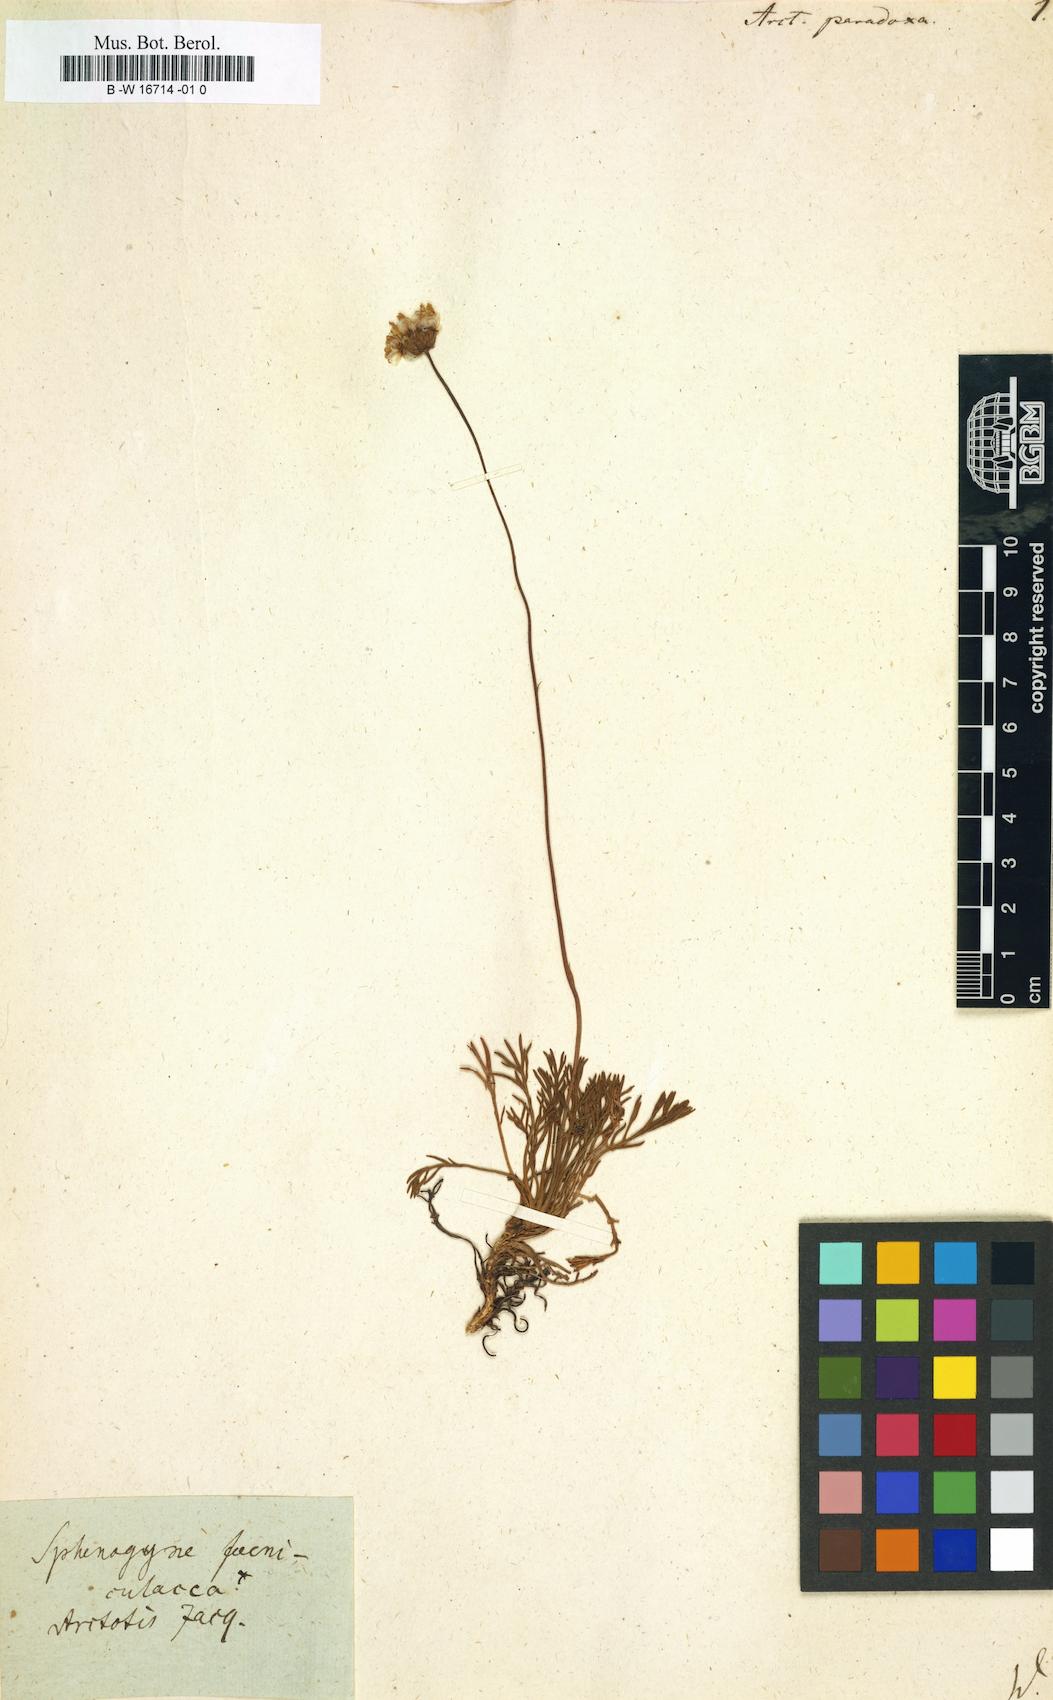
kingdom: Plantae
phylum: Tracheophyta
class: Magnoliopsida
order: Asterales
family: Asteraceae
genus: Ursinia
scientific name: Ursinia
